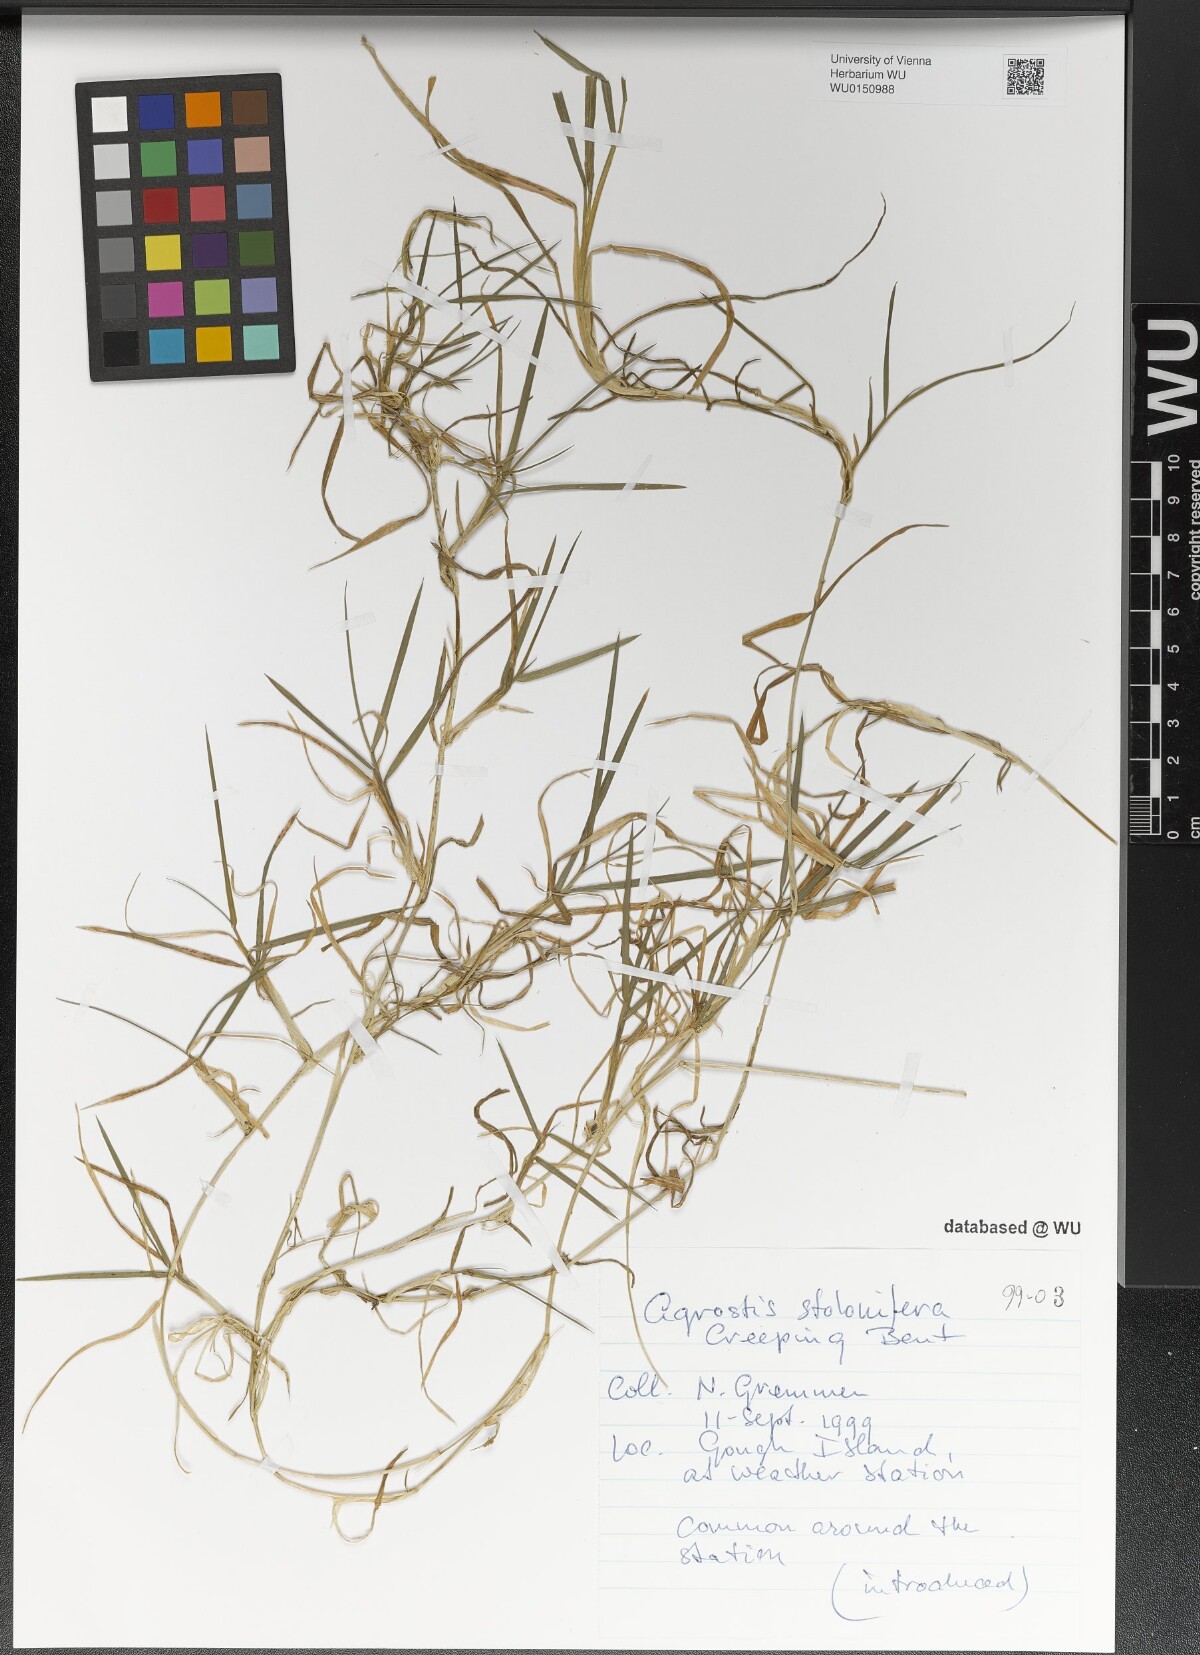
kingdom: Plantae
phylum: Tracheophyta
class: Liliopsida
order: Poales
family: Poaceae
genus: Agrostis
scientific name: Agrostis stolonifera
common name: Creeping bentgrass
